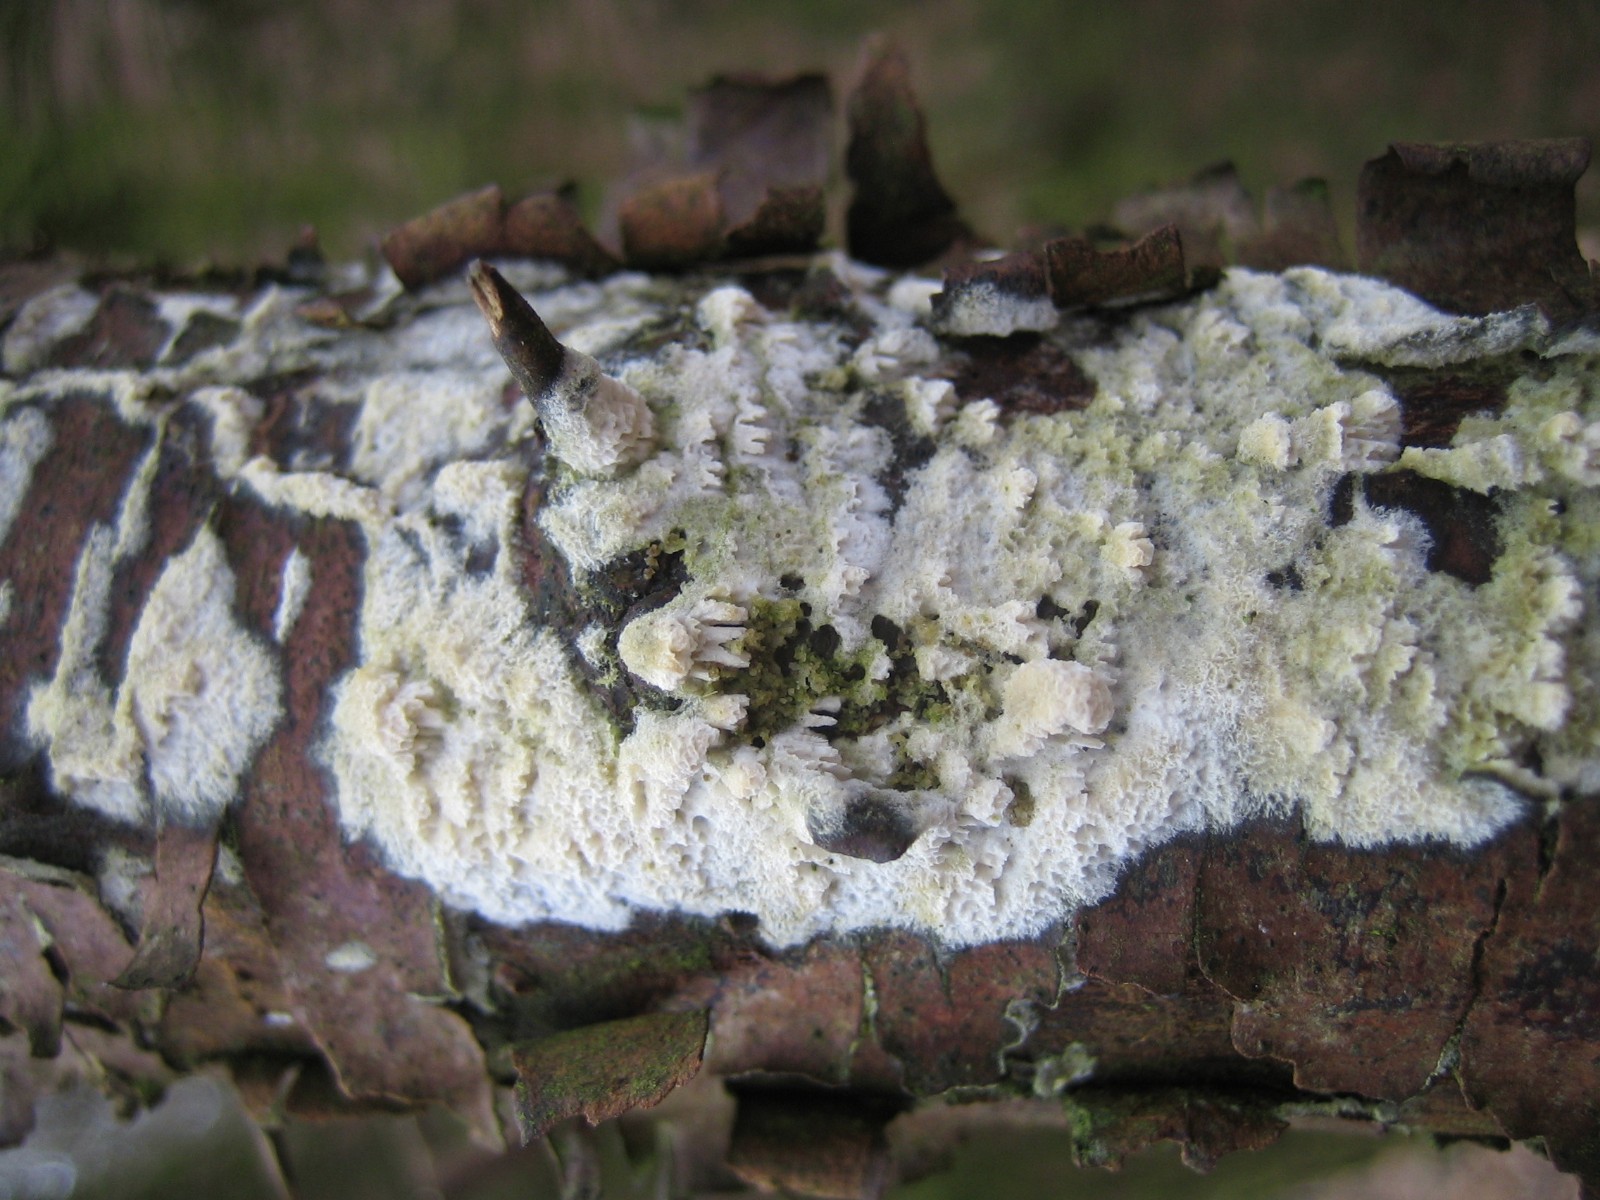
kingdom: Fungi
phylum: Basidiomycota
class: Agaricomycetes
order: Hymenochaetales
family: Schizoporaceae
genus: Schizopora
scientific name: Schizopora paradoxa
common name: hvid tandsvamp
